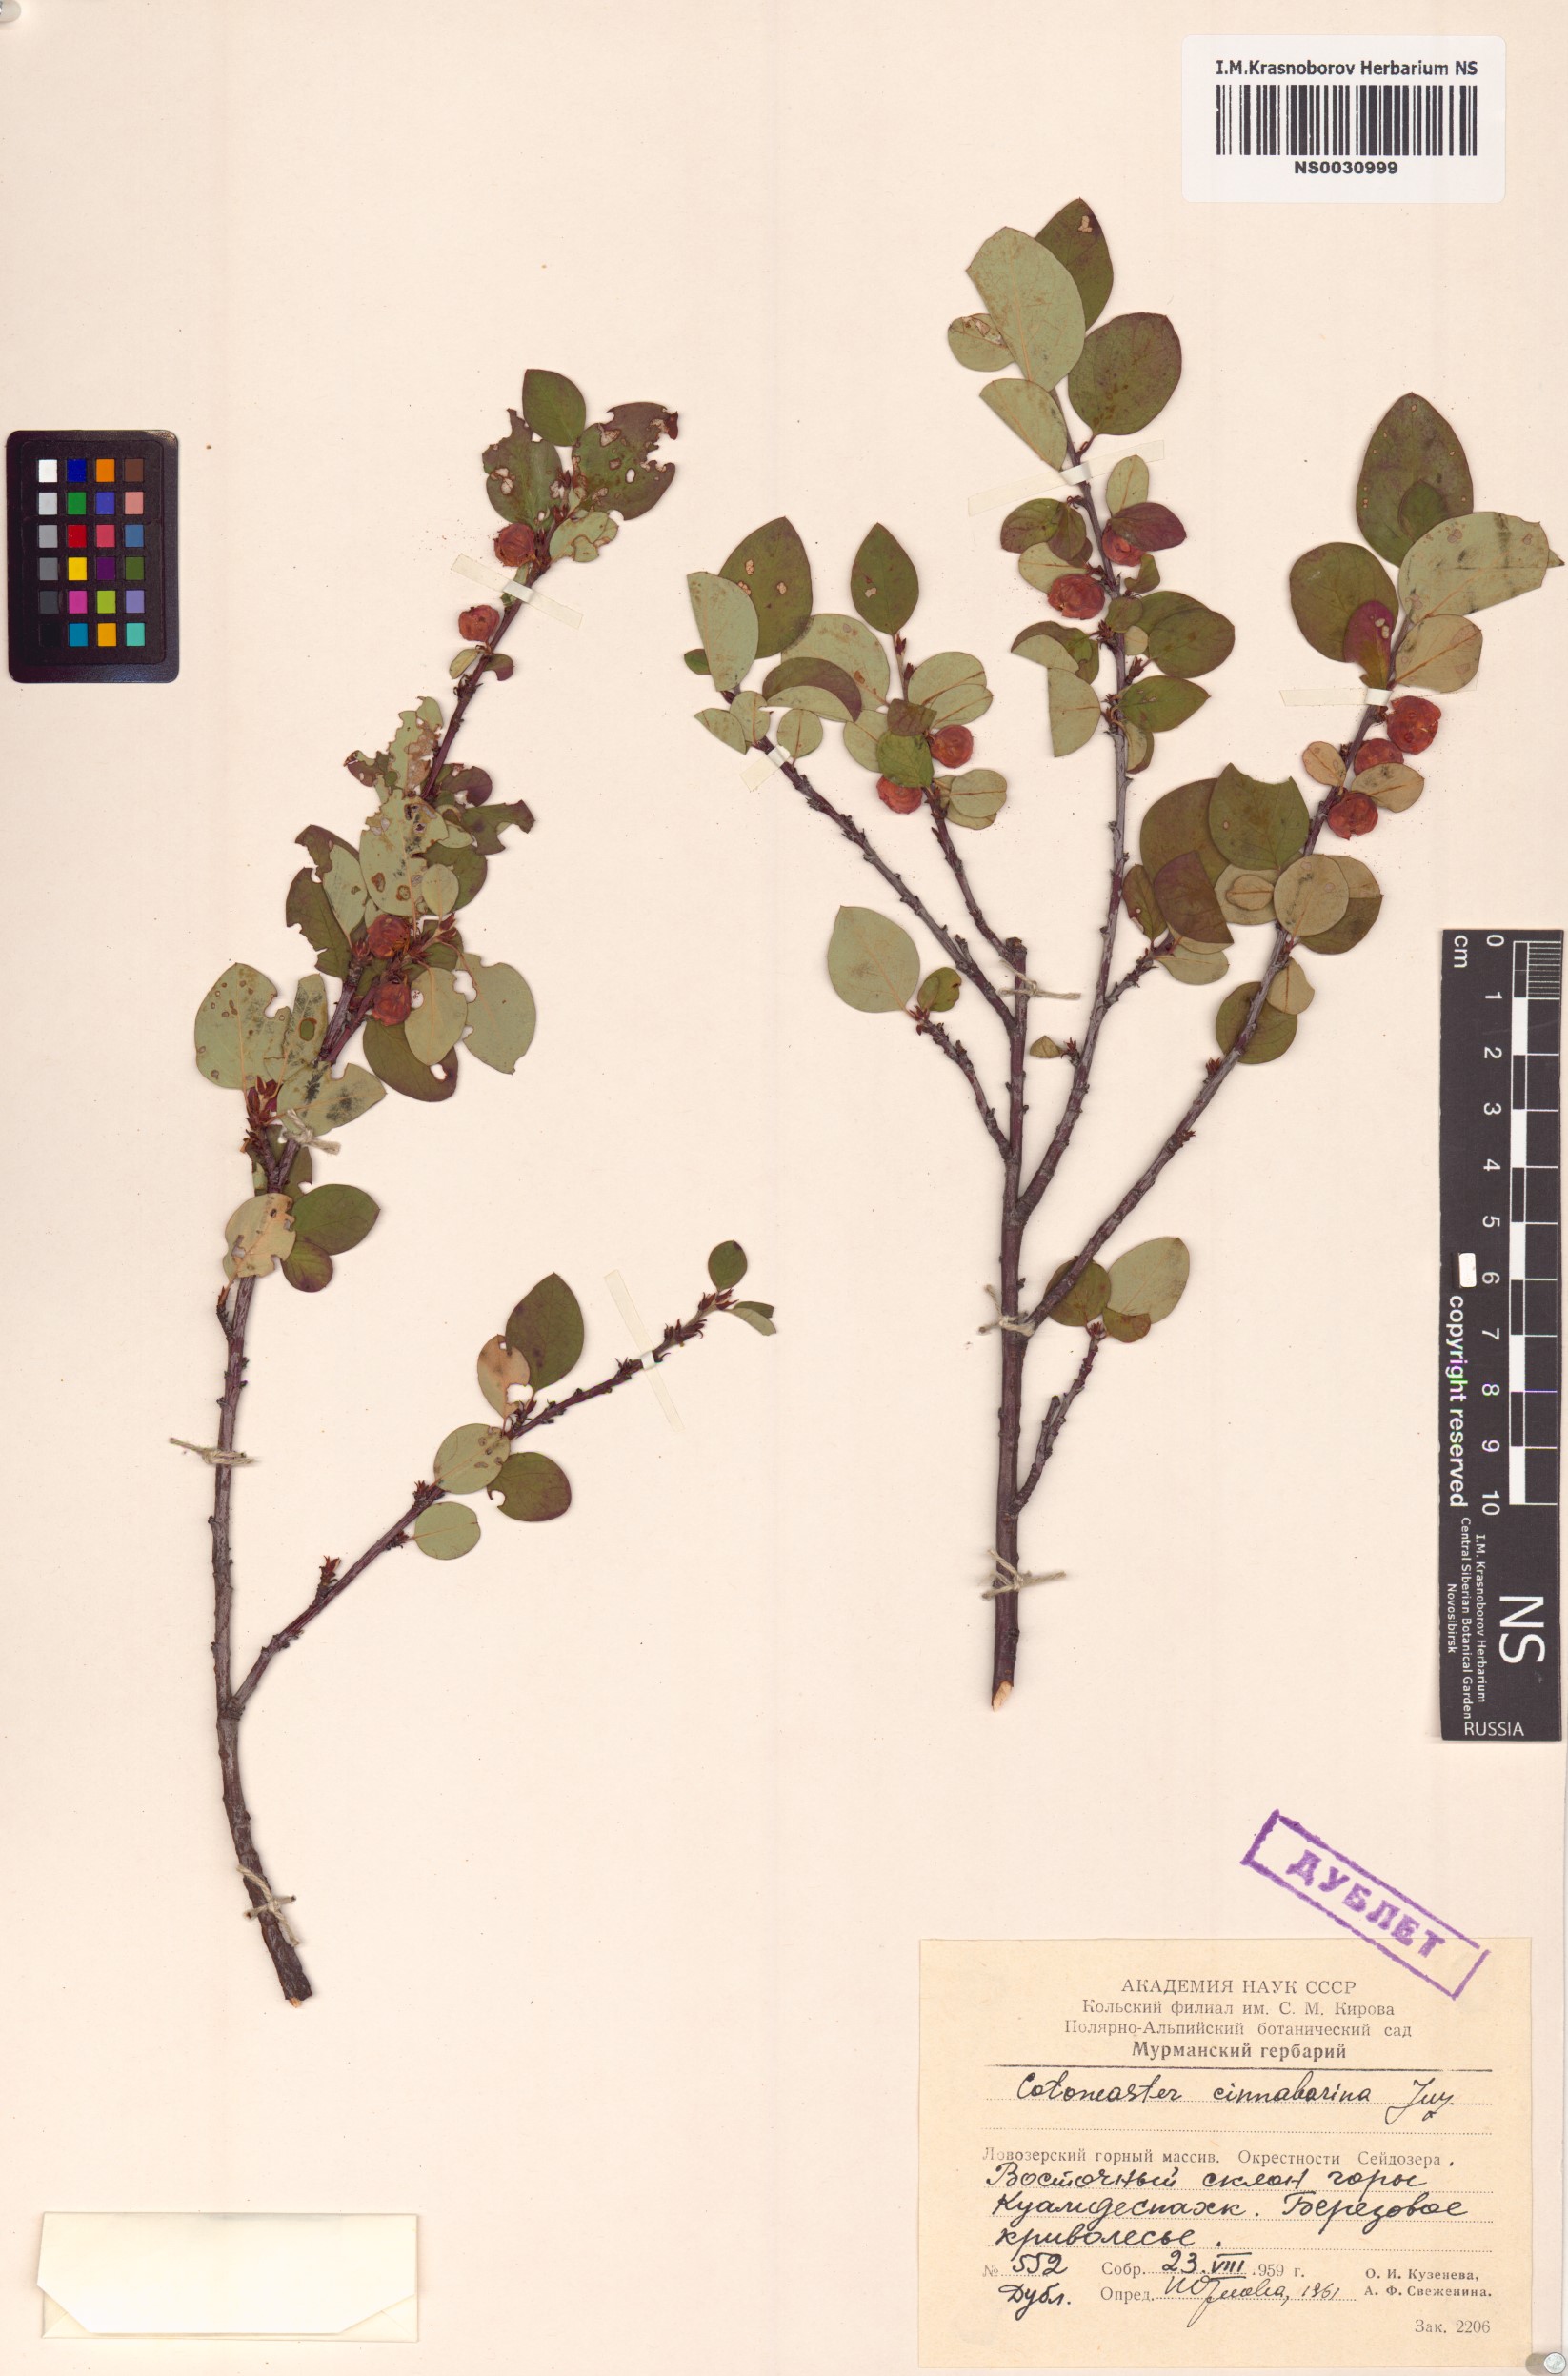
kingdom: Plantae
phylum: Tracheophyta
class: Magnoliopsida
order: Rosales
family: Rosaceae
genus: Cotoneaster
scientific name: Cotoneaster integerrimus
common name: Wild cotoneaster
